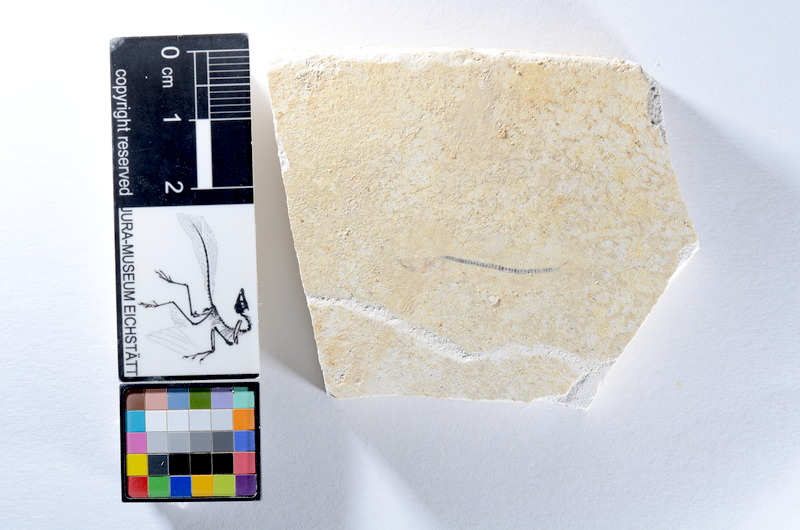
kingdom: Animalia
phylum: Chordata
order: Salmoniformes
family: Orthogonikleithridae
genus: Orthogonikleithrus
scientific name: Orthogonikleithrus hoelli
